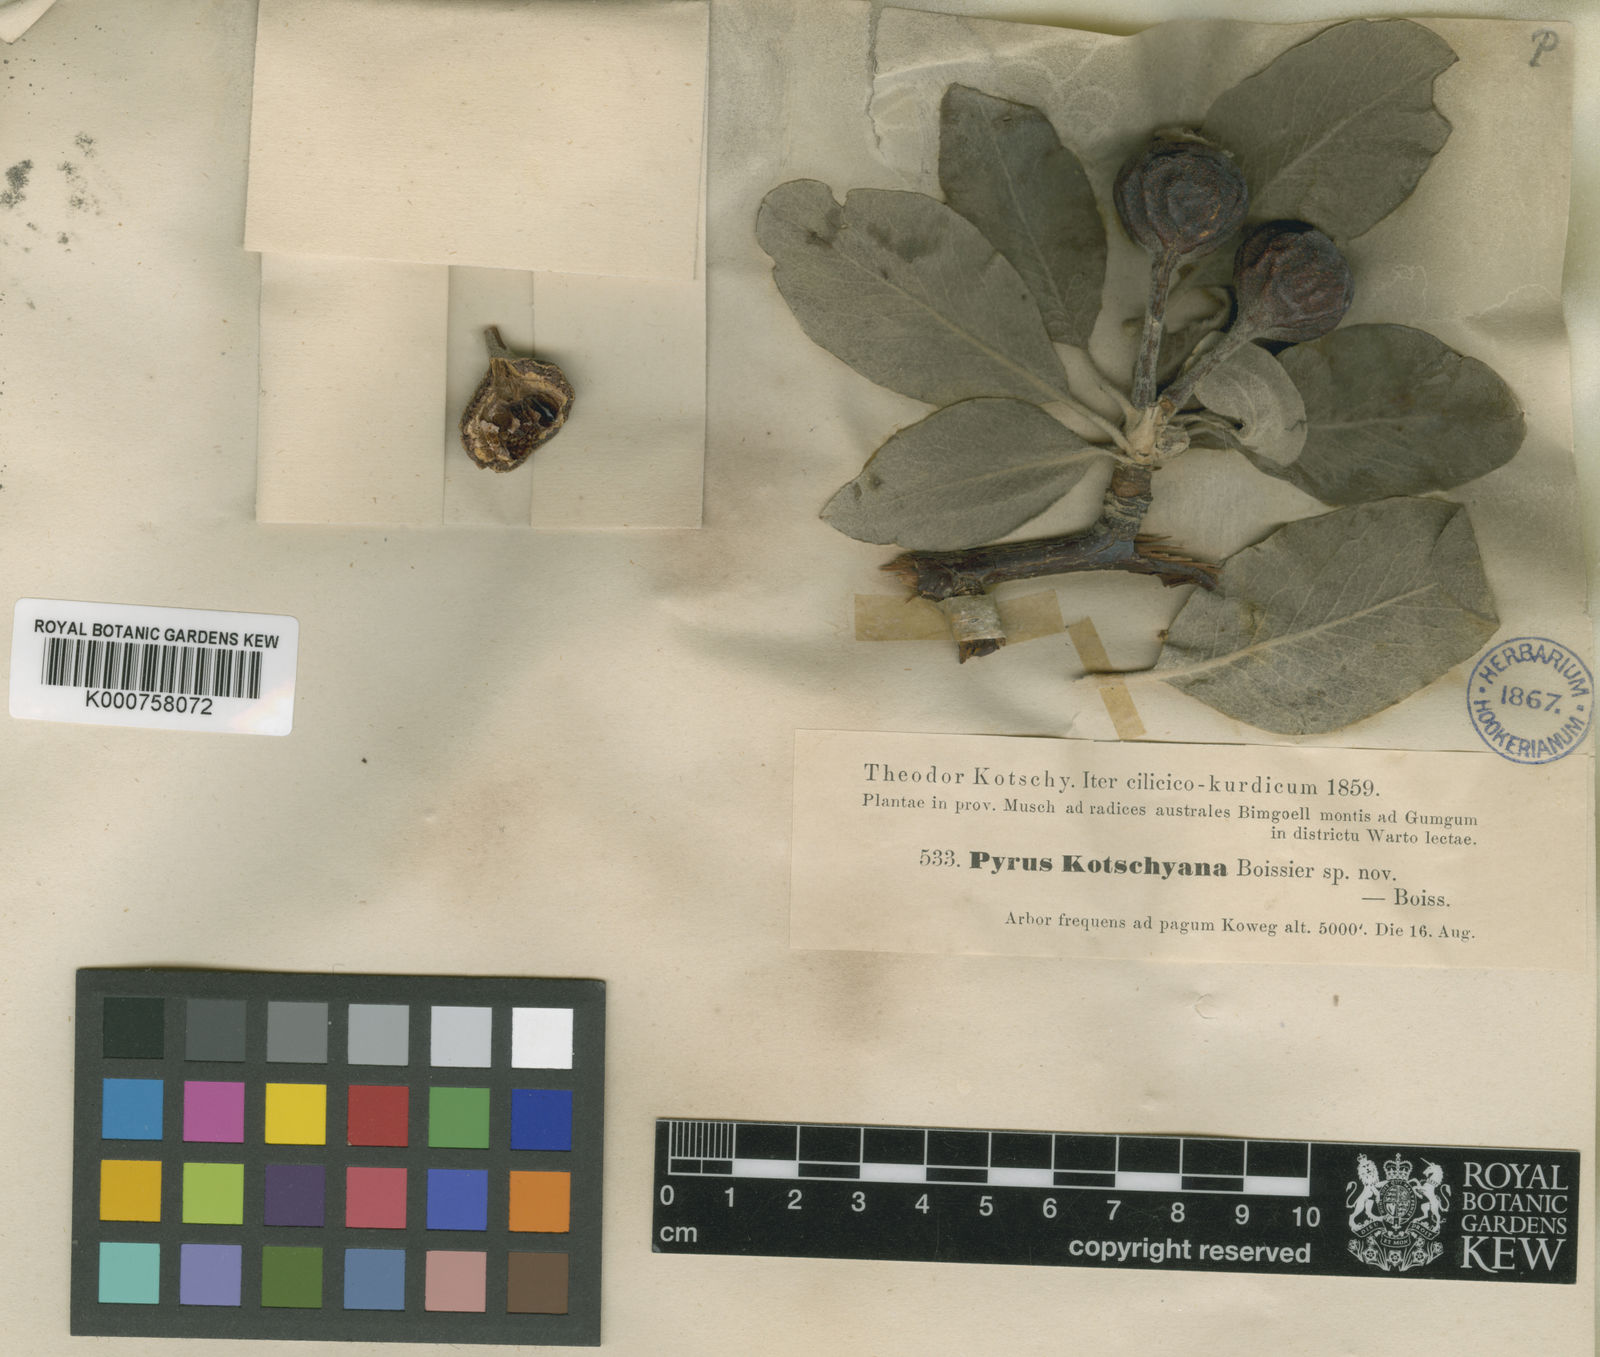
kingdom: Plantae
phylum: Tracheophyta
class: Magnoliopsida
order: Rosales
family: Rosaceae
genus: Pyrus
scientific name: Pyrus
